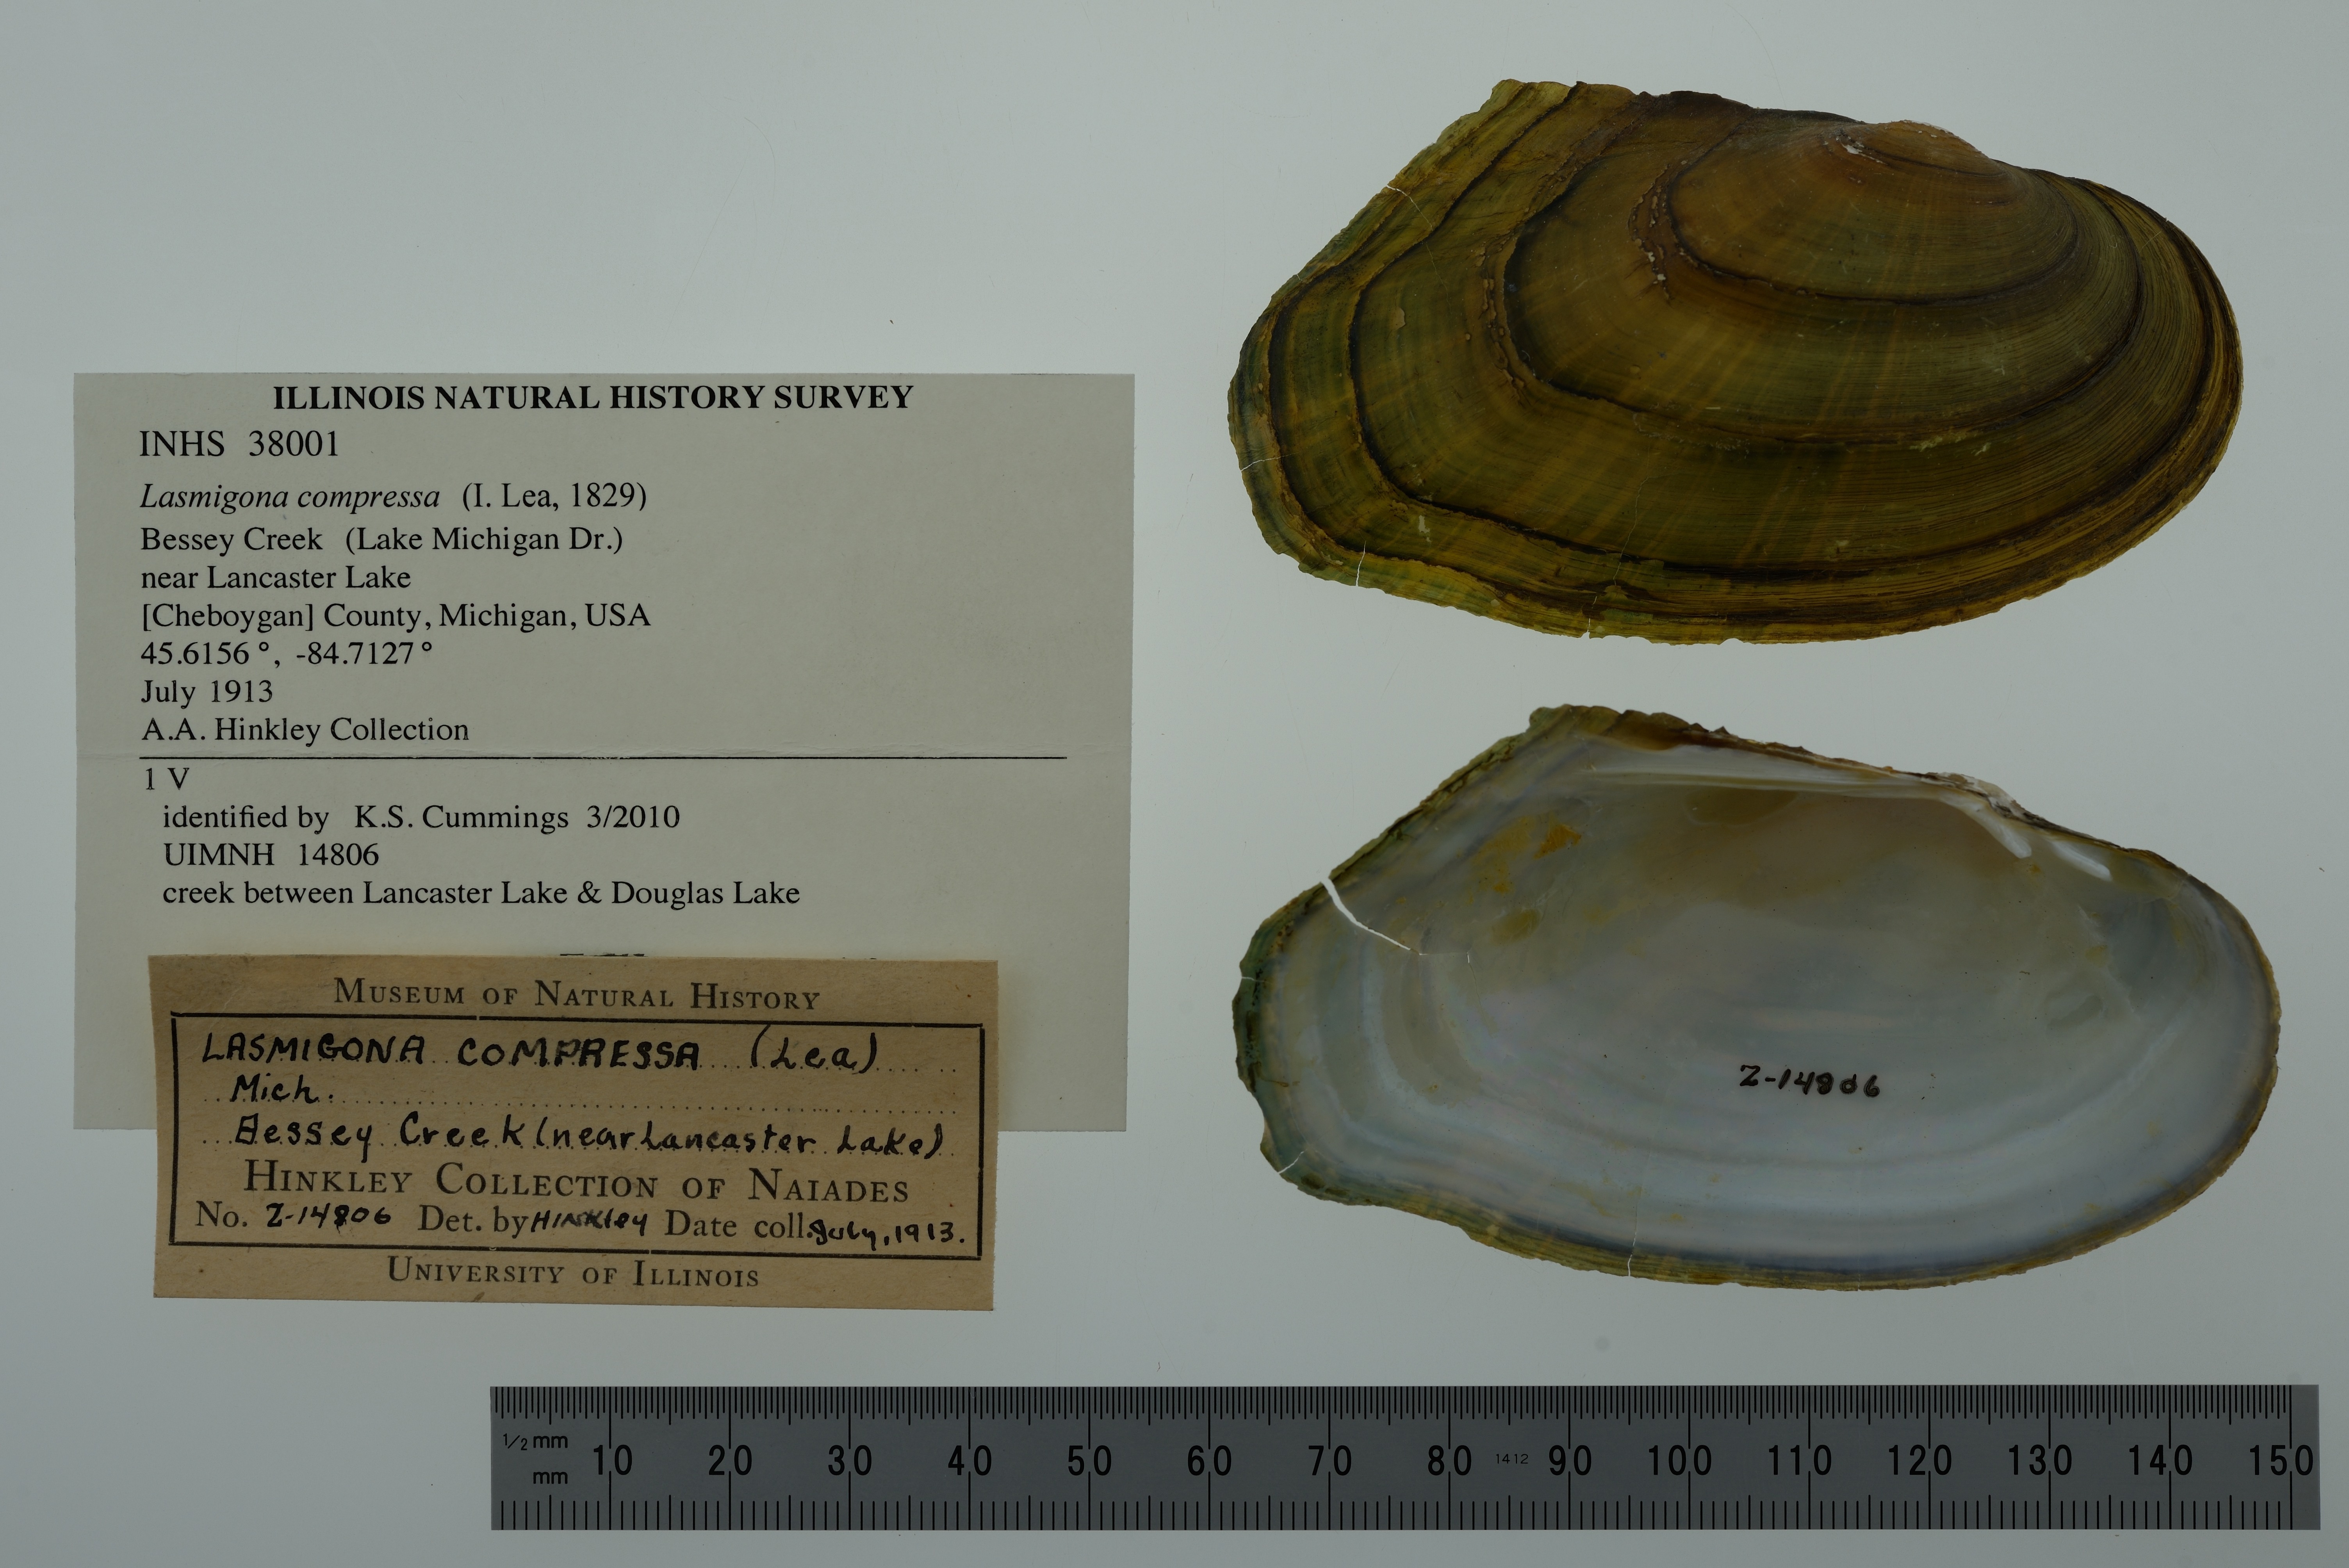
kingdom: Animalia
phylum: Mollusca
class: Bivalvia
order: Unionida
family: Unionidae
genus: Lasmigona
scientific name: Lasmigona compressa
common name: Creek heelsplitter
